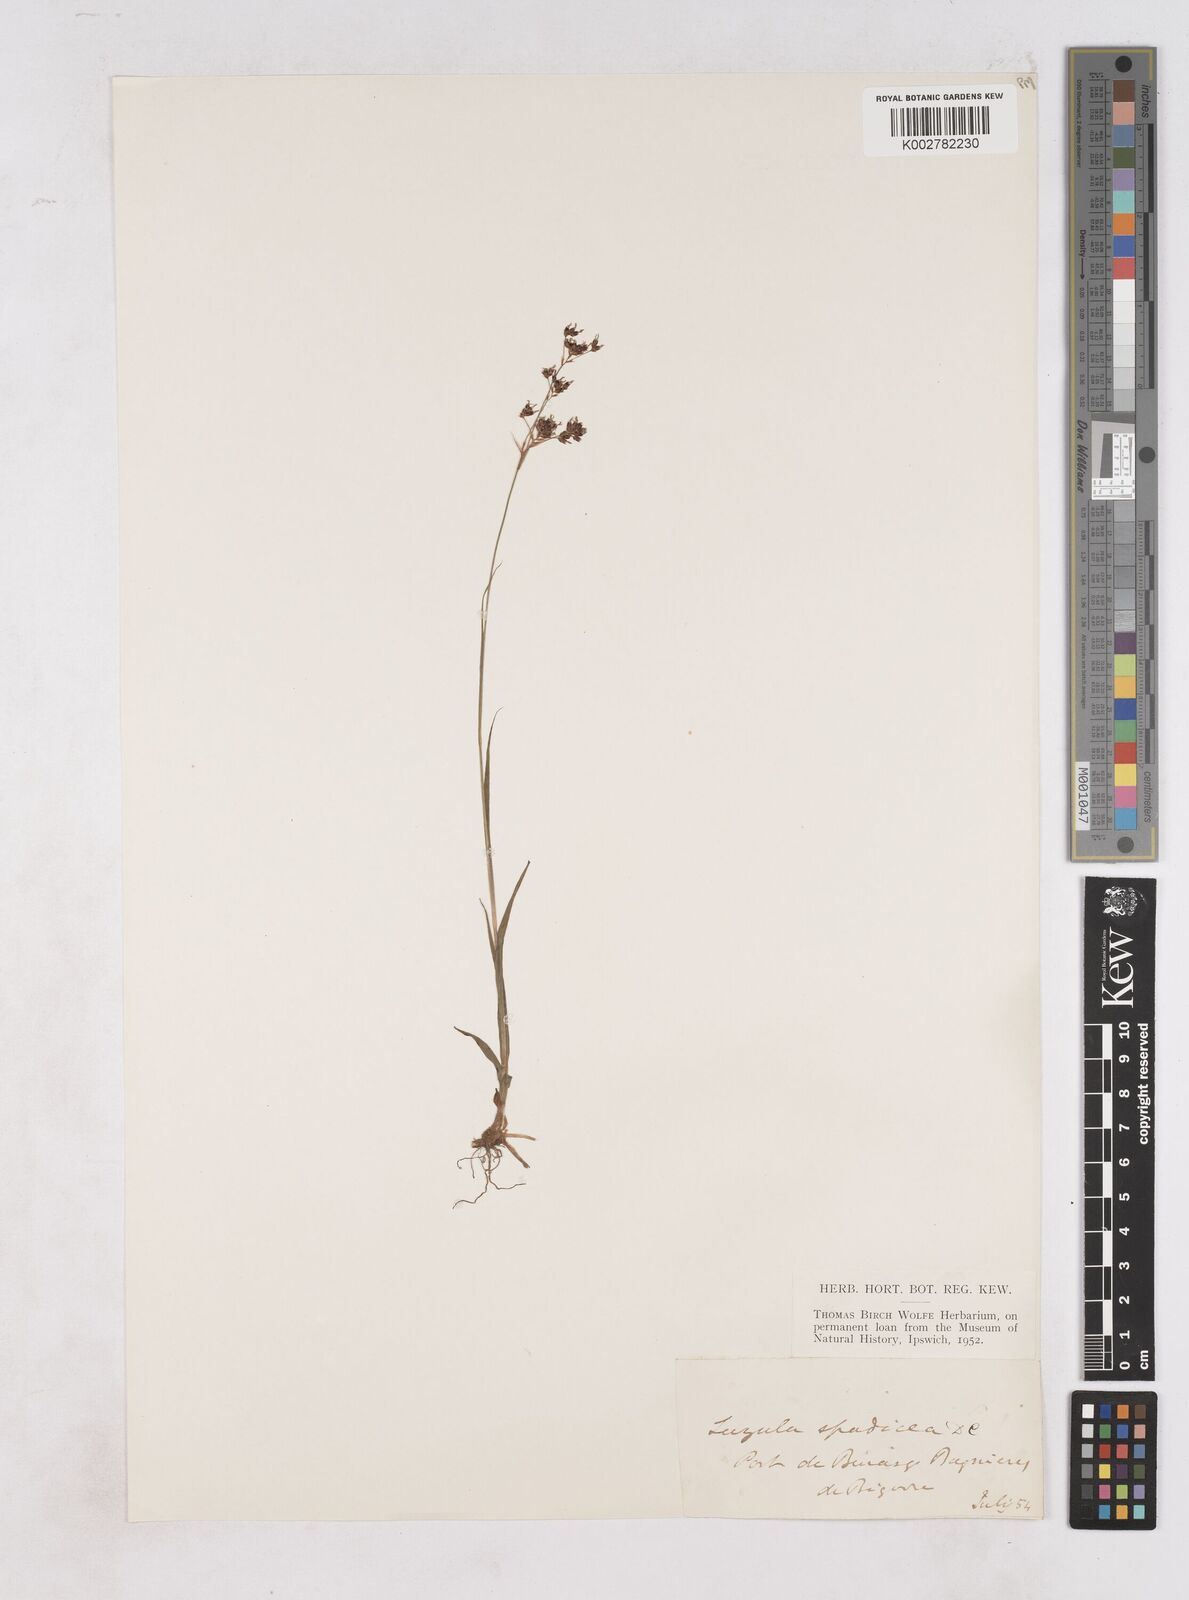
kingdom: Plantae
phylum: Tracheophyta
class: Liliopsida
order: Poales
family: Juncaceae
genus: Luzula
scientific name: Luzula alpinopilosa
